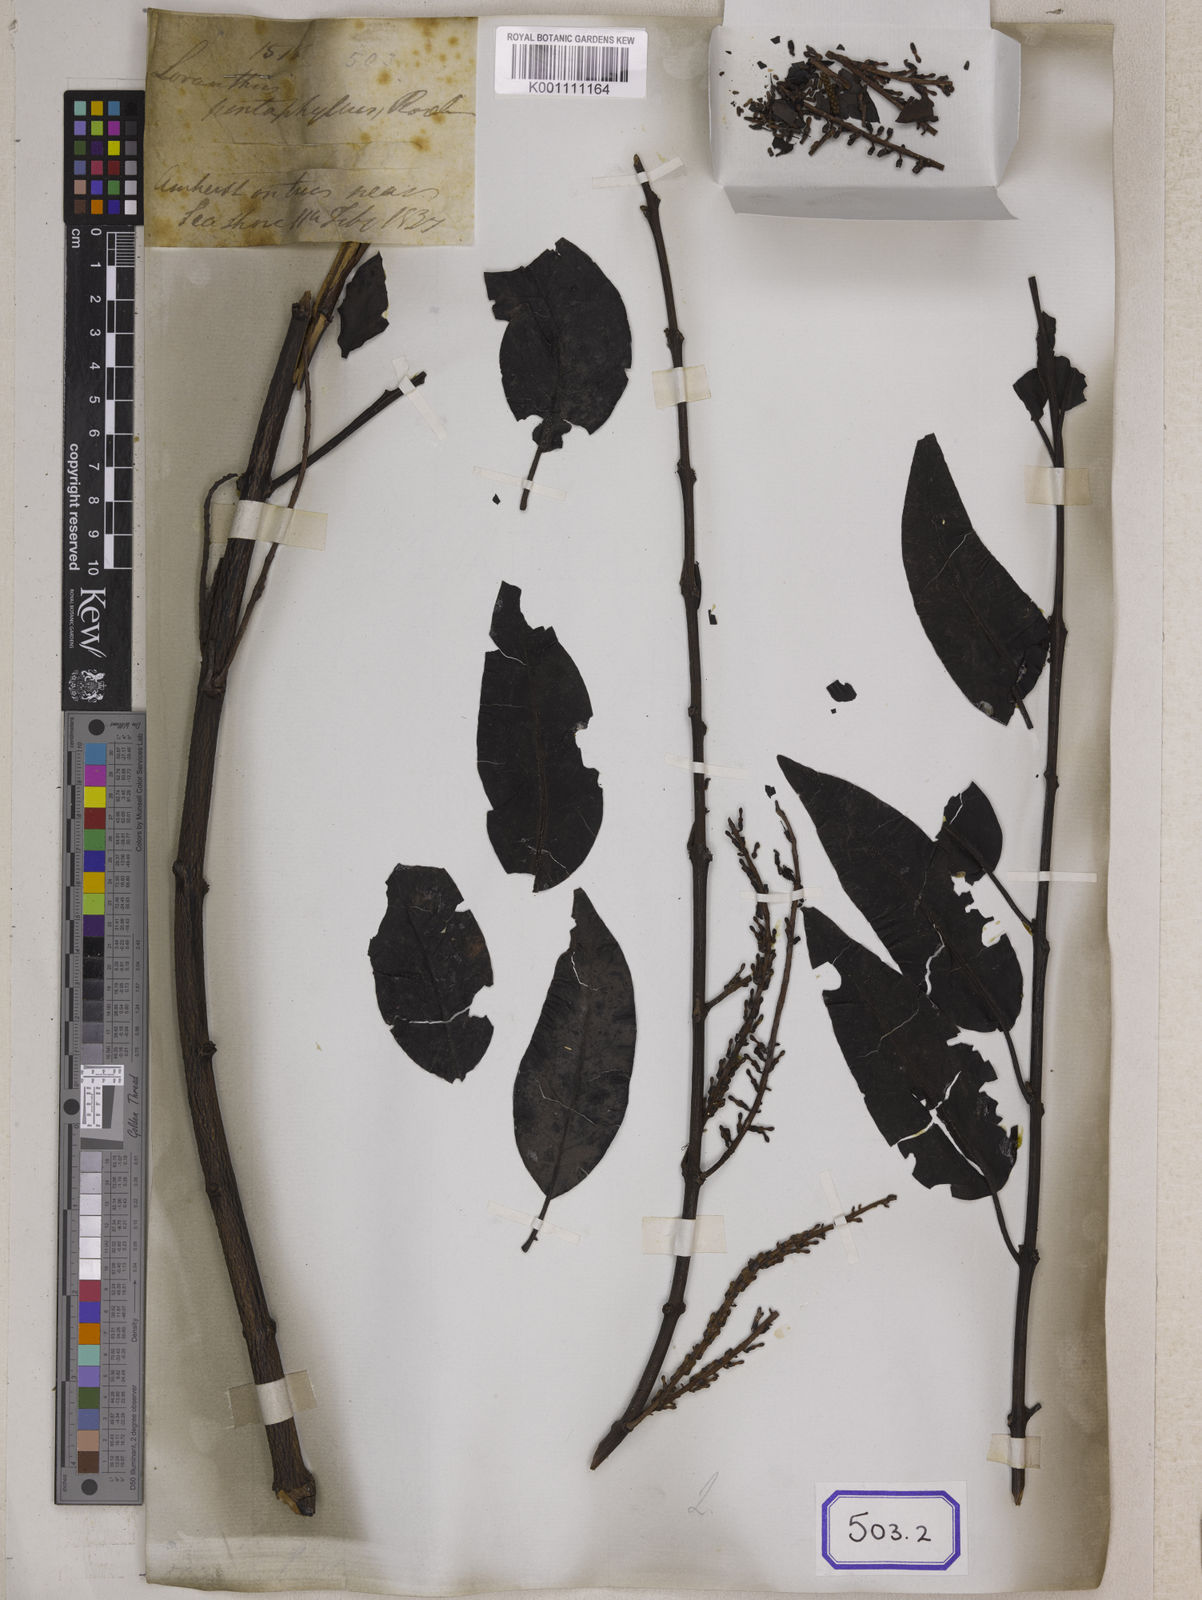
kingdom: Plantae
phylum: Tracheophyta
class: Magnoliopsida
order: Santalales
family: Loranthaceae
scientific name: Loranthaceae
